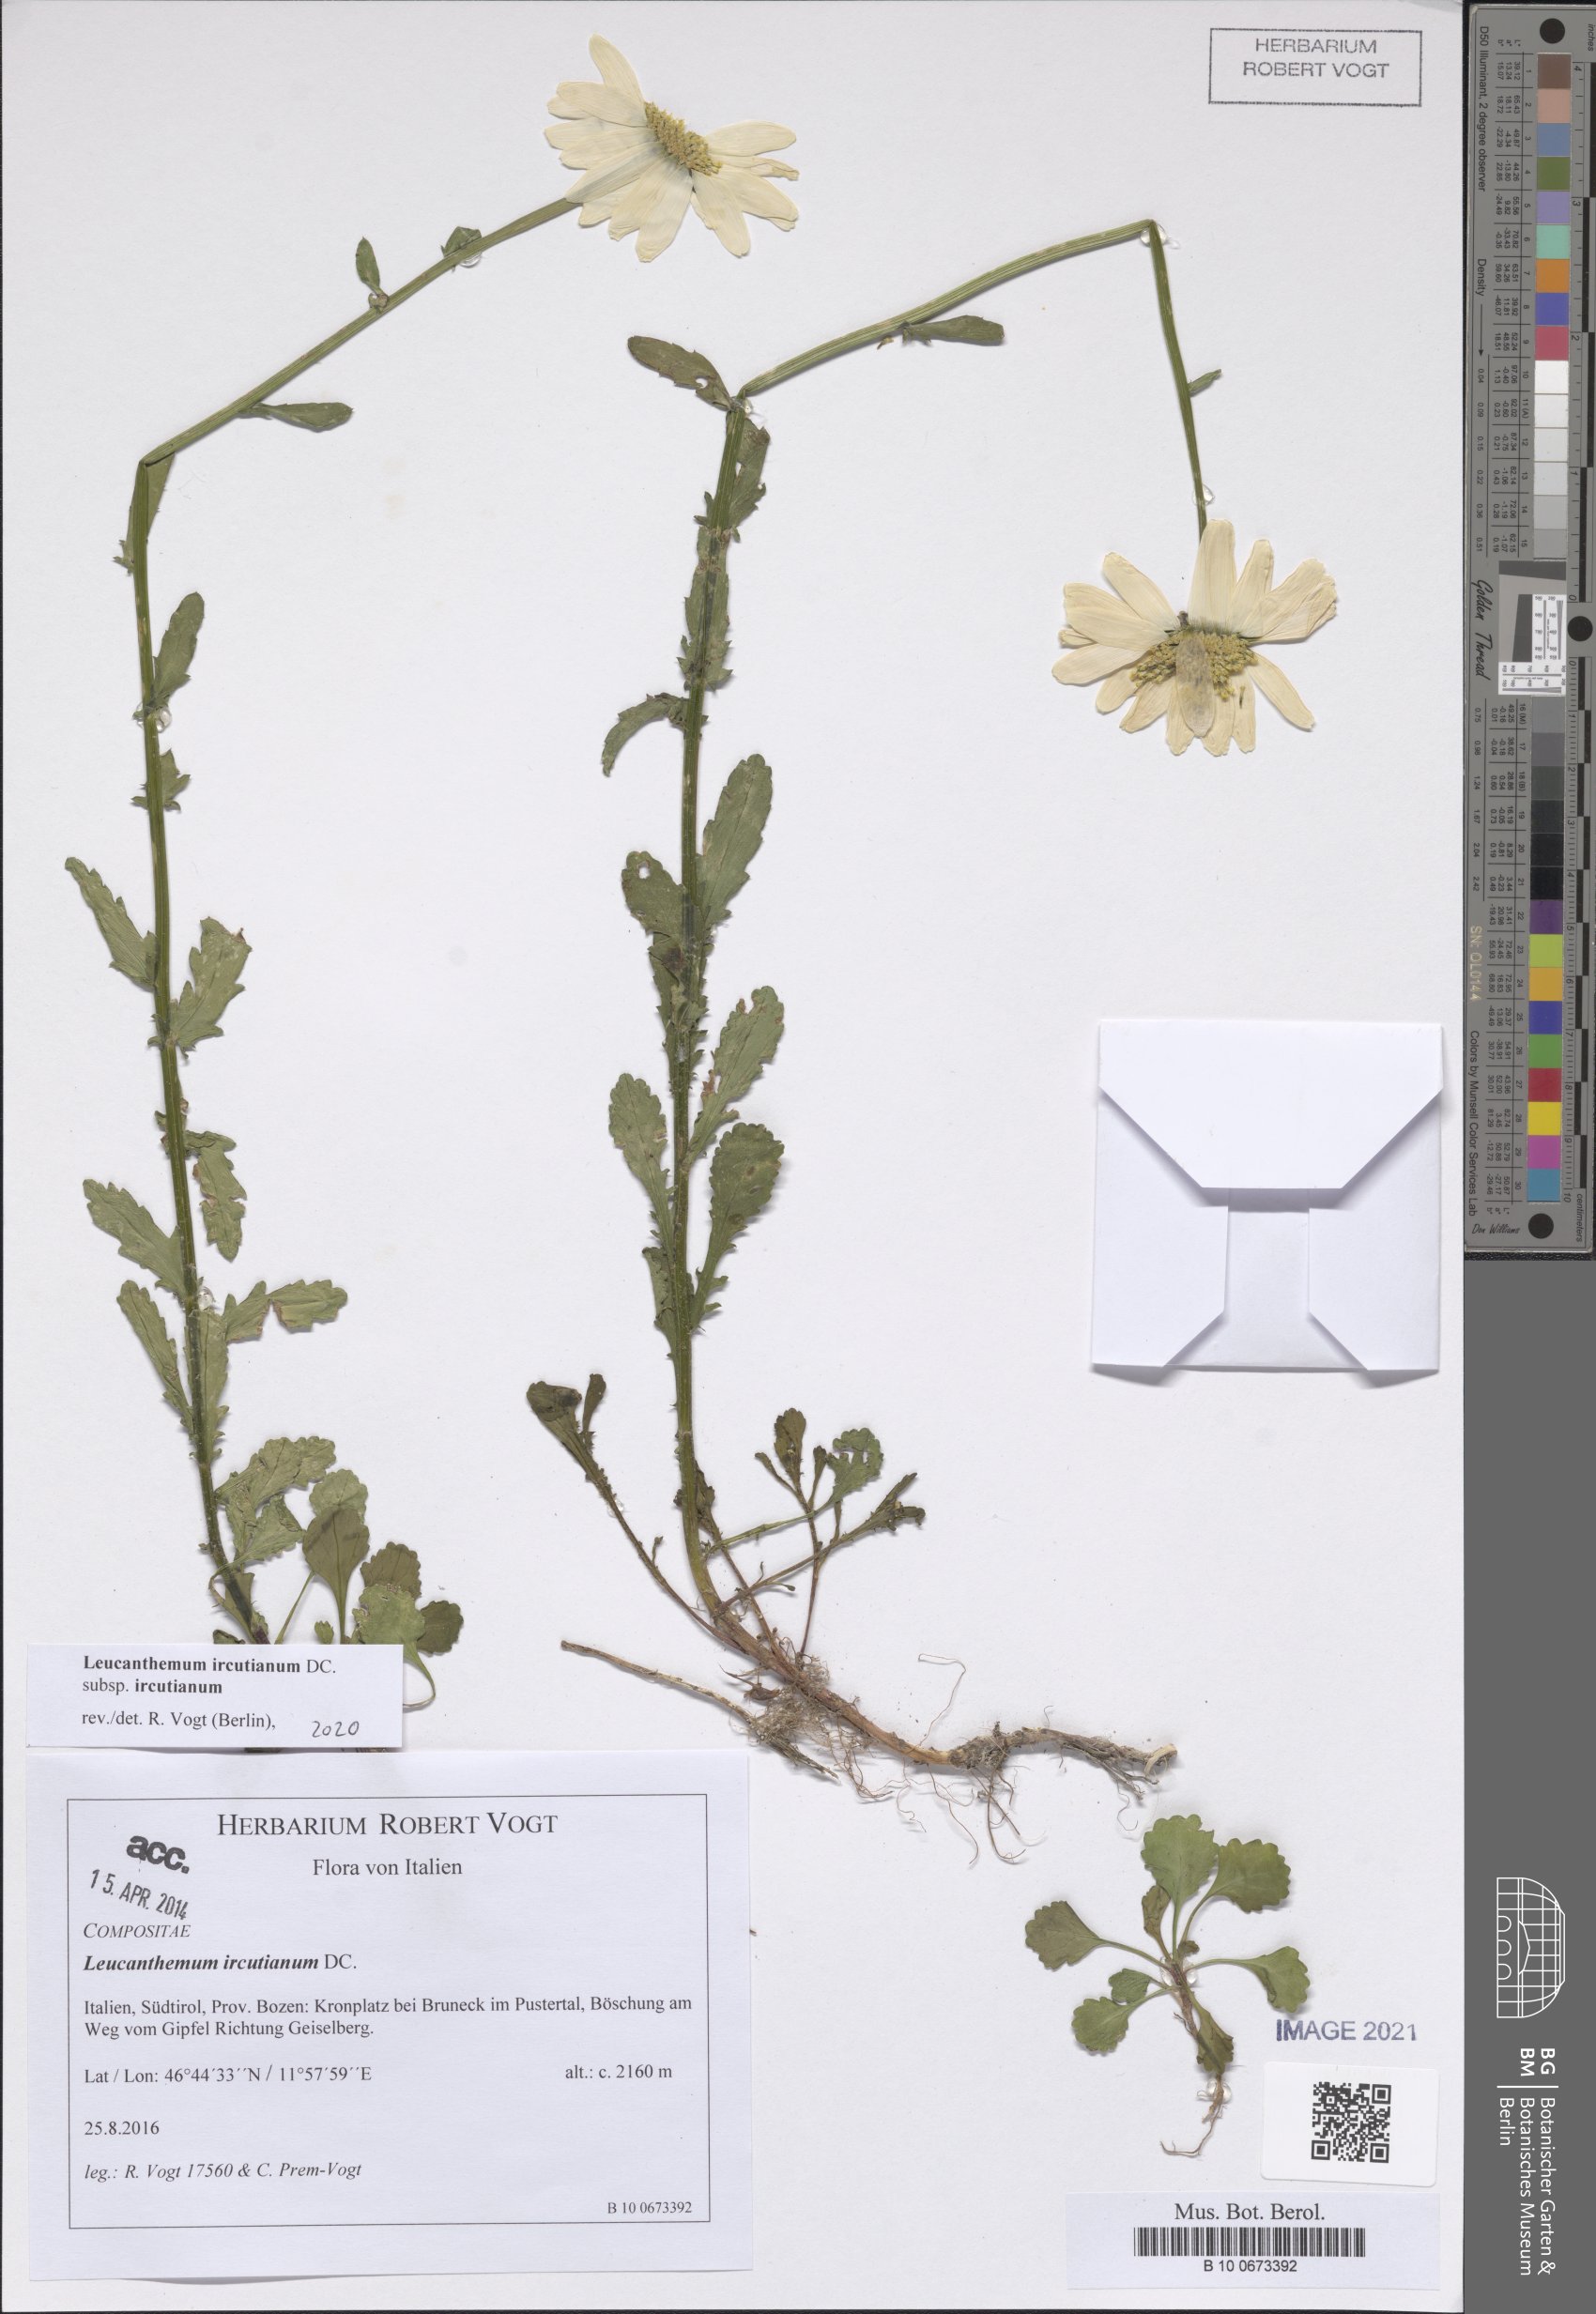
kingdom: Plantae
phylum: Tracheophyta
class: Magnoliopsida
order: Asterales
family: Asteraceae
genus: Leucanthemum
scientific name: Leucanthemum ircutianum
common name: Daisy
